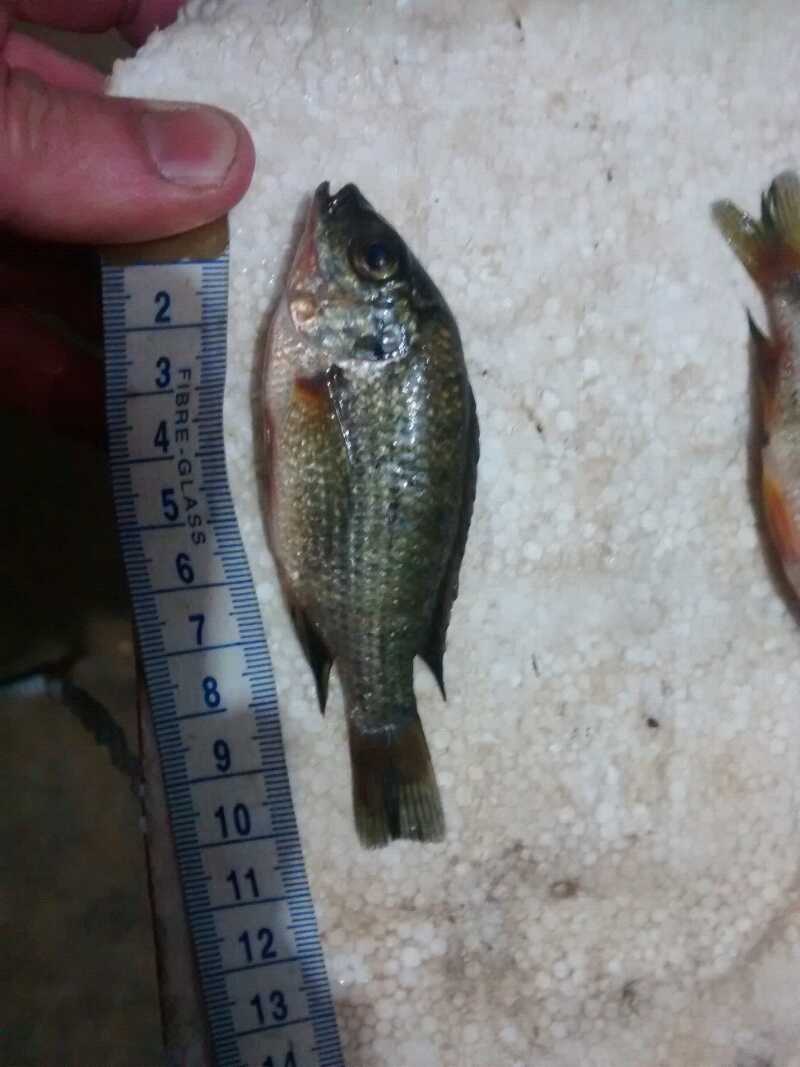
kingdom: Animalia
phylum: Chordata
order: Perciformes
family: Cichlidae
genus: Oreochromis
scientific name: Oreochromis shiranus
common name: Chilwa tilapia
